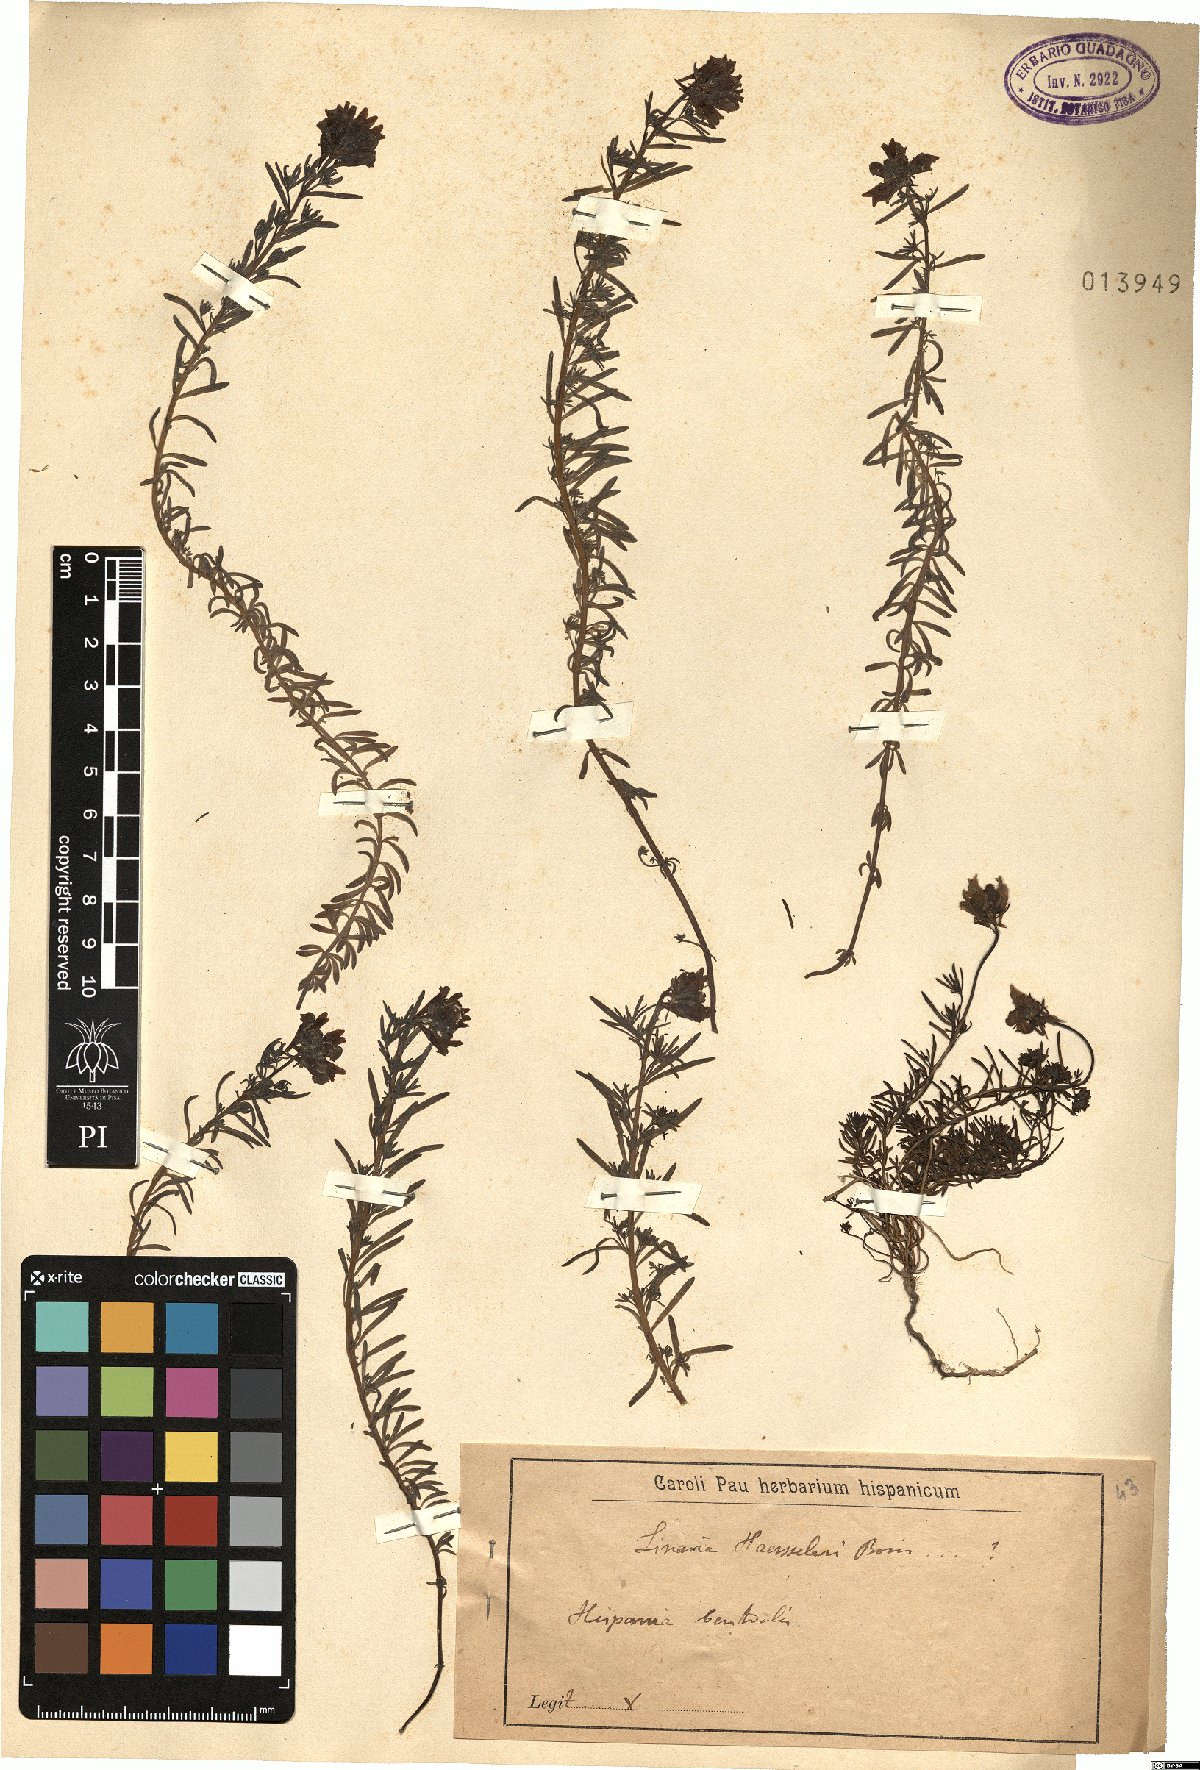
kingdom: Plantae
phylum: Tracheophyta
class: Magnoliopsida
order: Lamiales
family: Plantaginaceae
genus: Linaria
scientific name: Linaria oblongifolia
